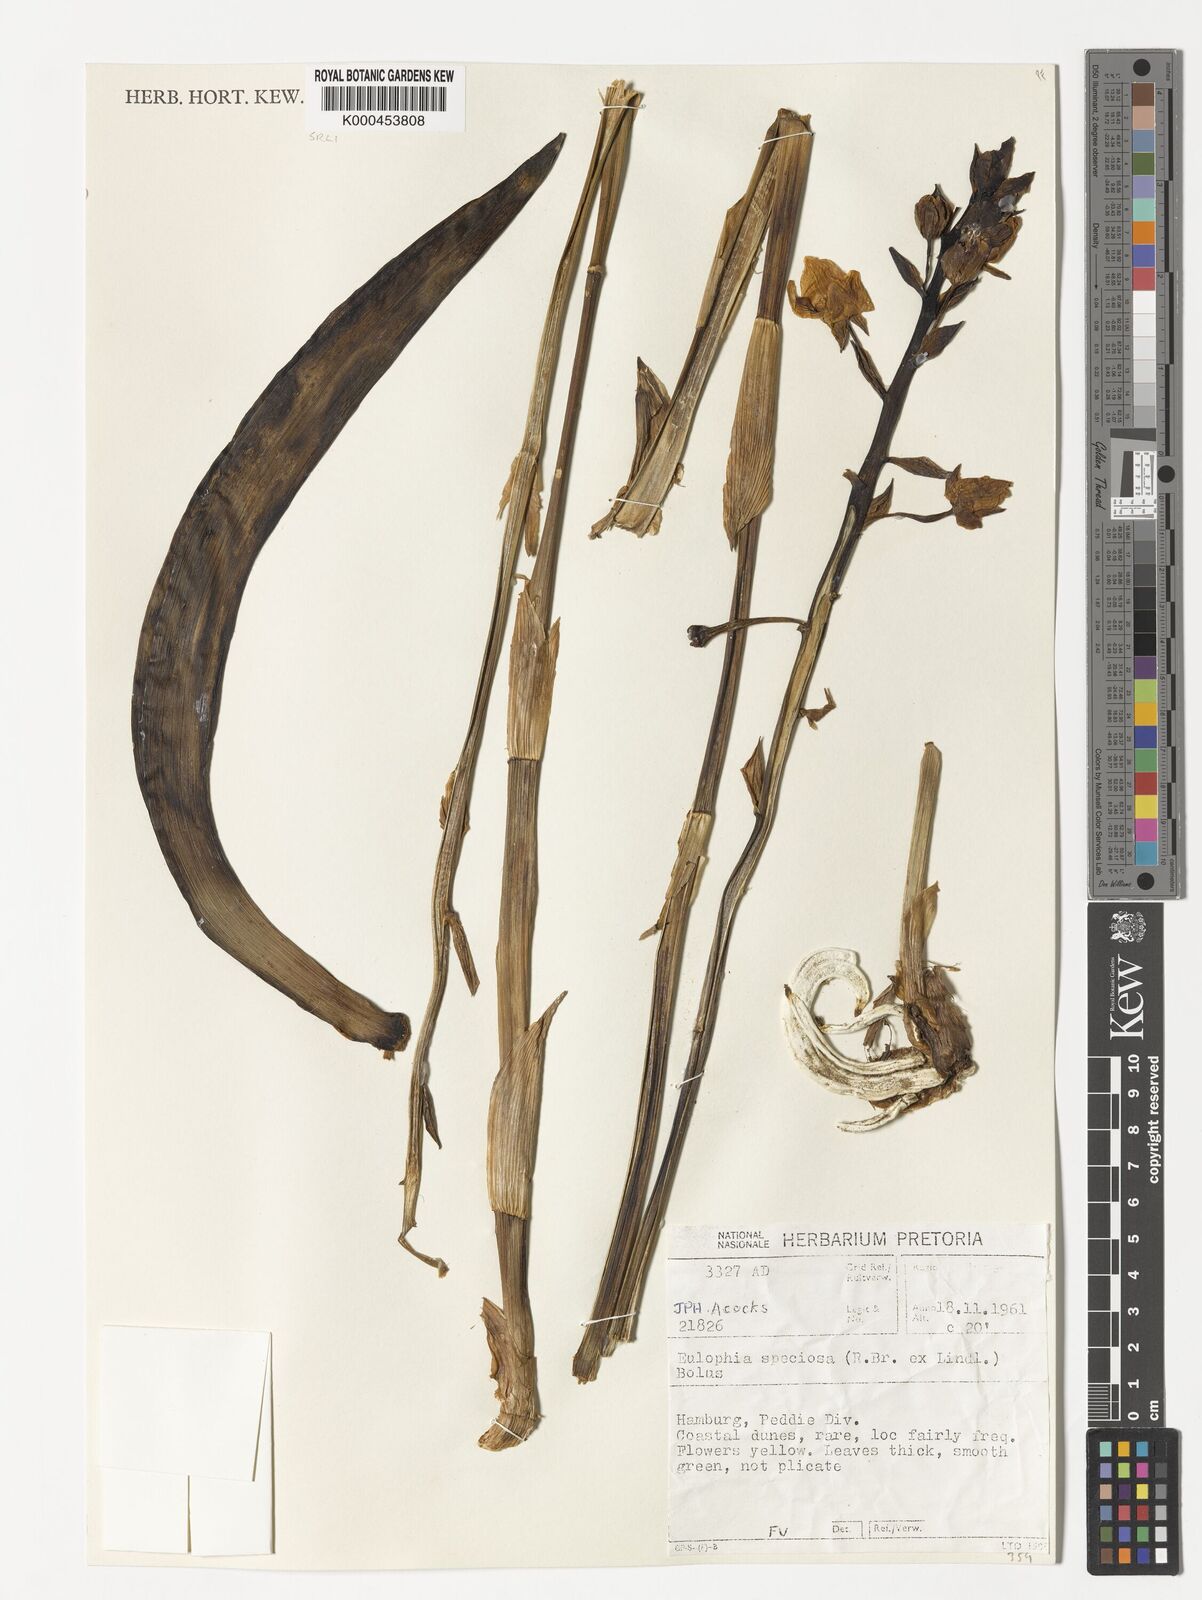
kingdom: Plantae
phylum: Tracheophyta
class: Liliopsida
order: Asparagales
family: Orchidaceae
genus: Eulophia
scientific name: Eulophia speciosa
